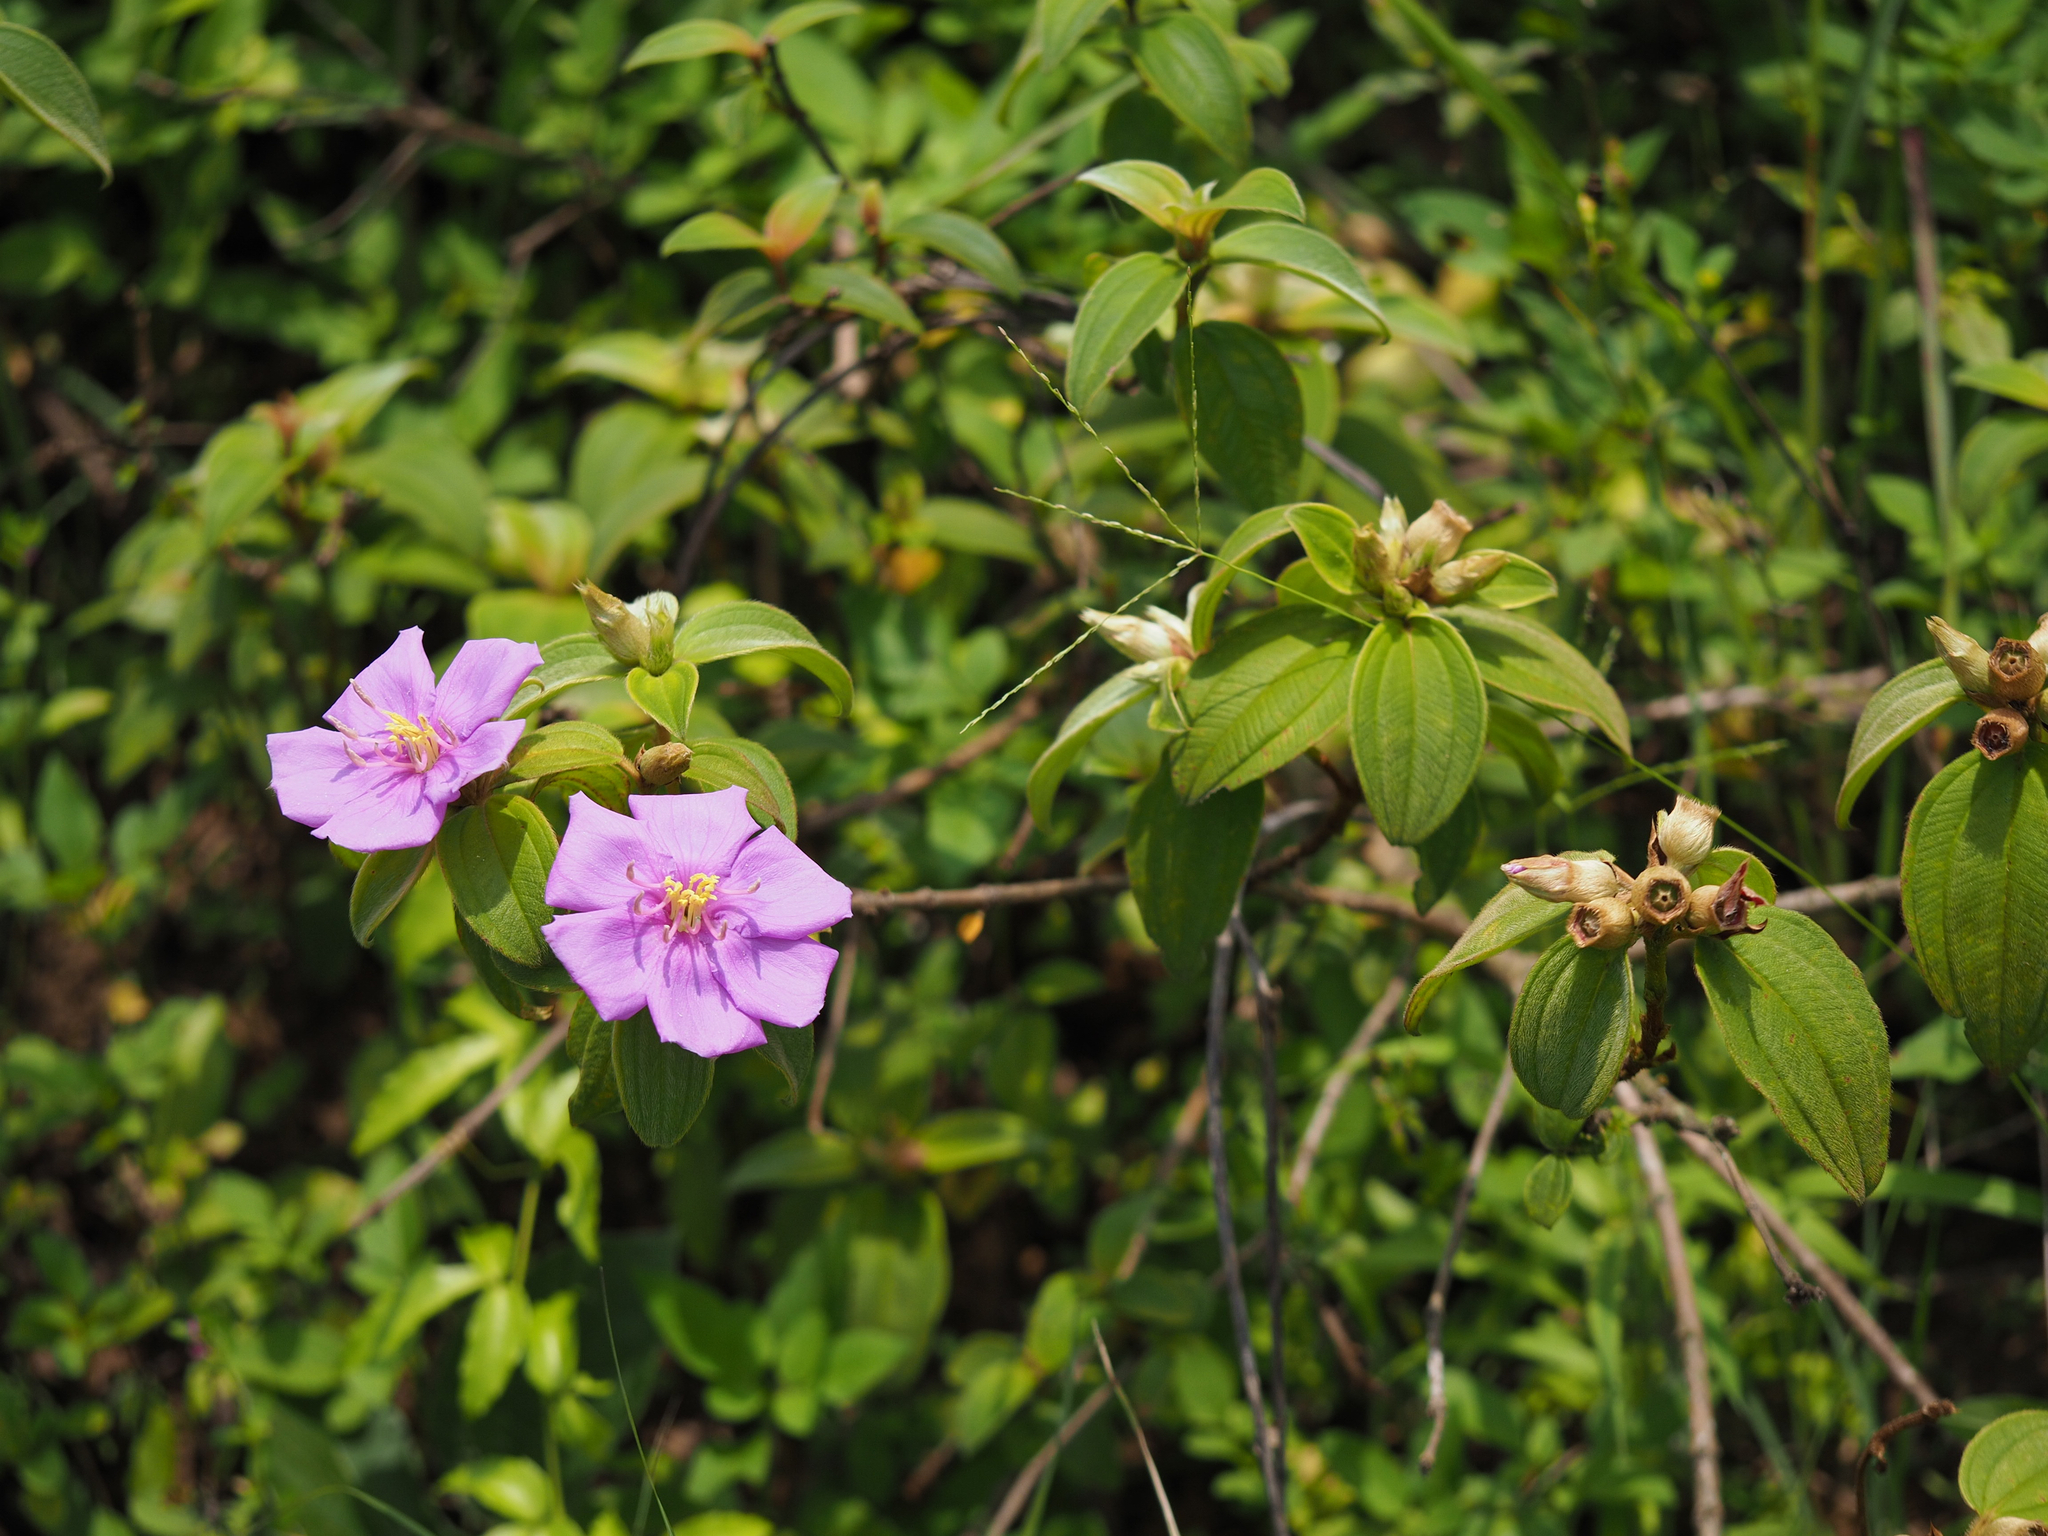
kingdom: Plantae
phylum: Tracheophyta
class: Magnoliopsida
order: Myrtales
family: Melastomataceae
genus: Melastoma
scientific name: Melastoma malabathricum
